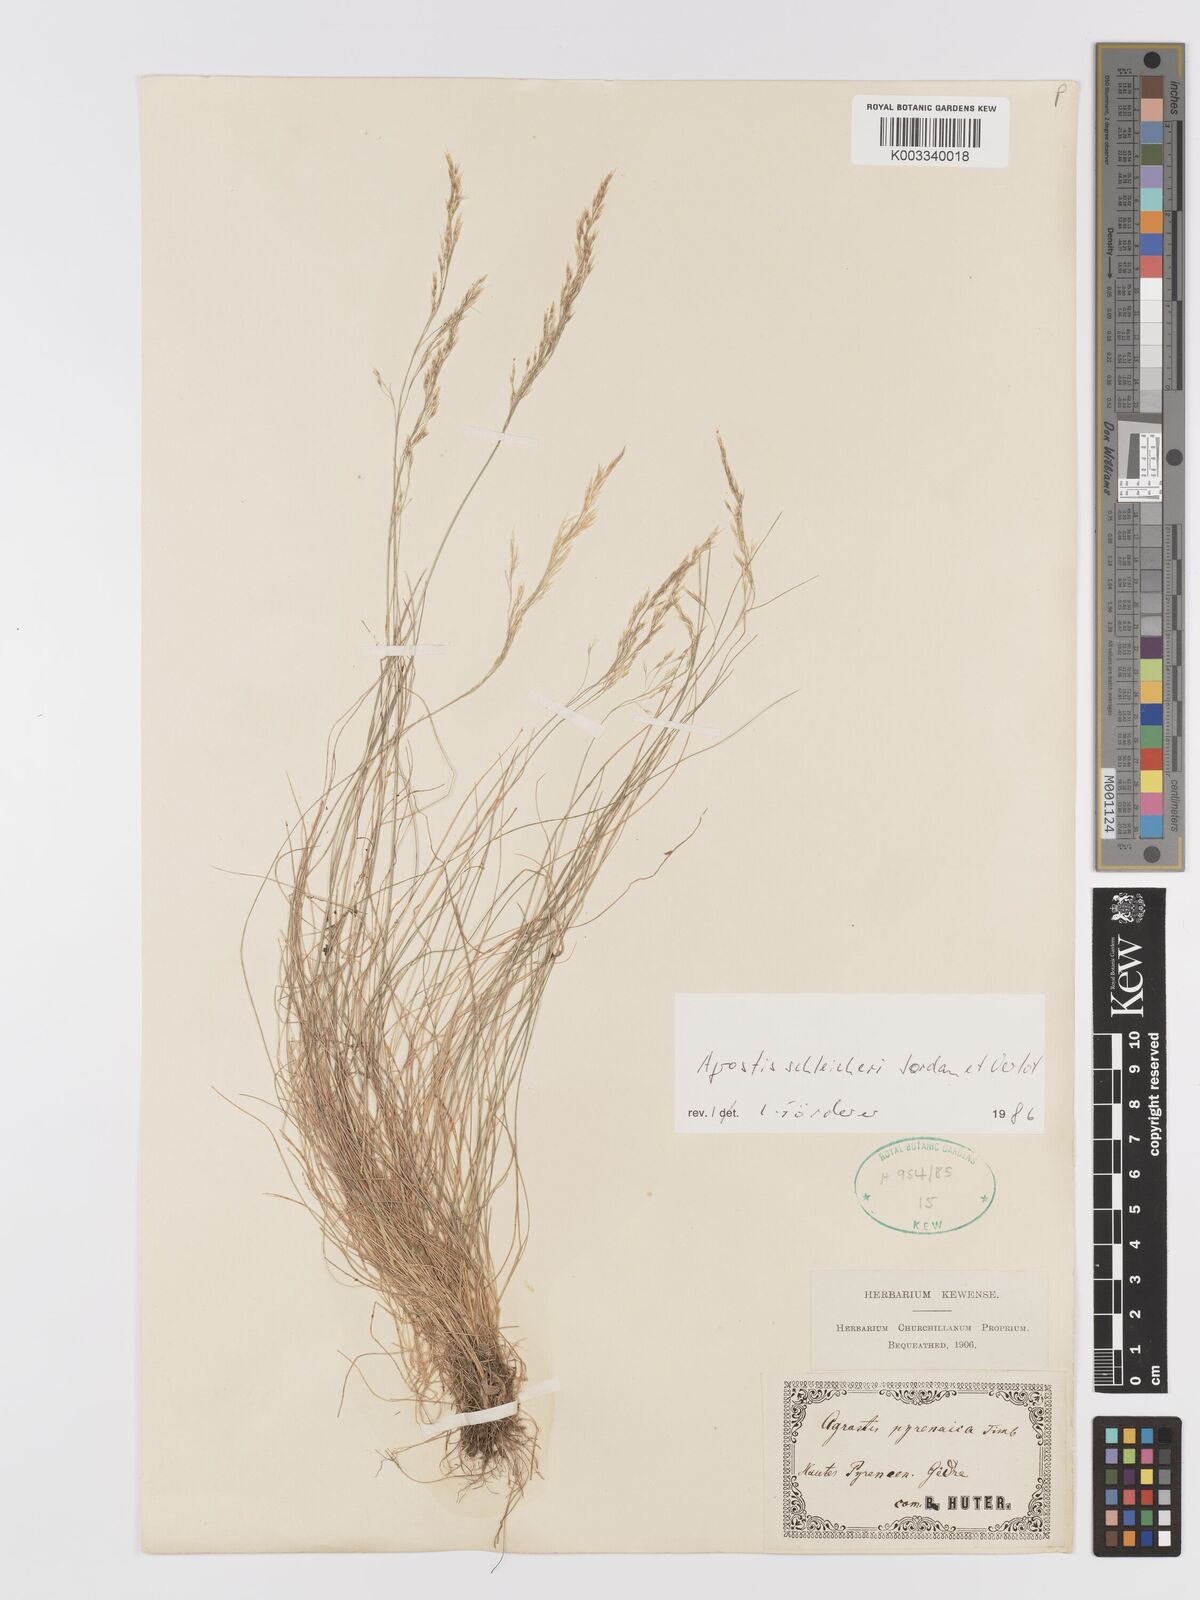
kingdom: Plantae
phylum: Tracheophyta
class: Liliopsida
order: Poales
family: Poaceae
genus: Alpagrostis
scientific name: Alpagrostis schleicheri
